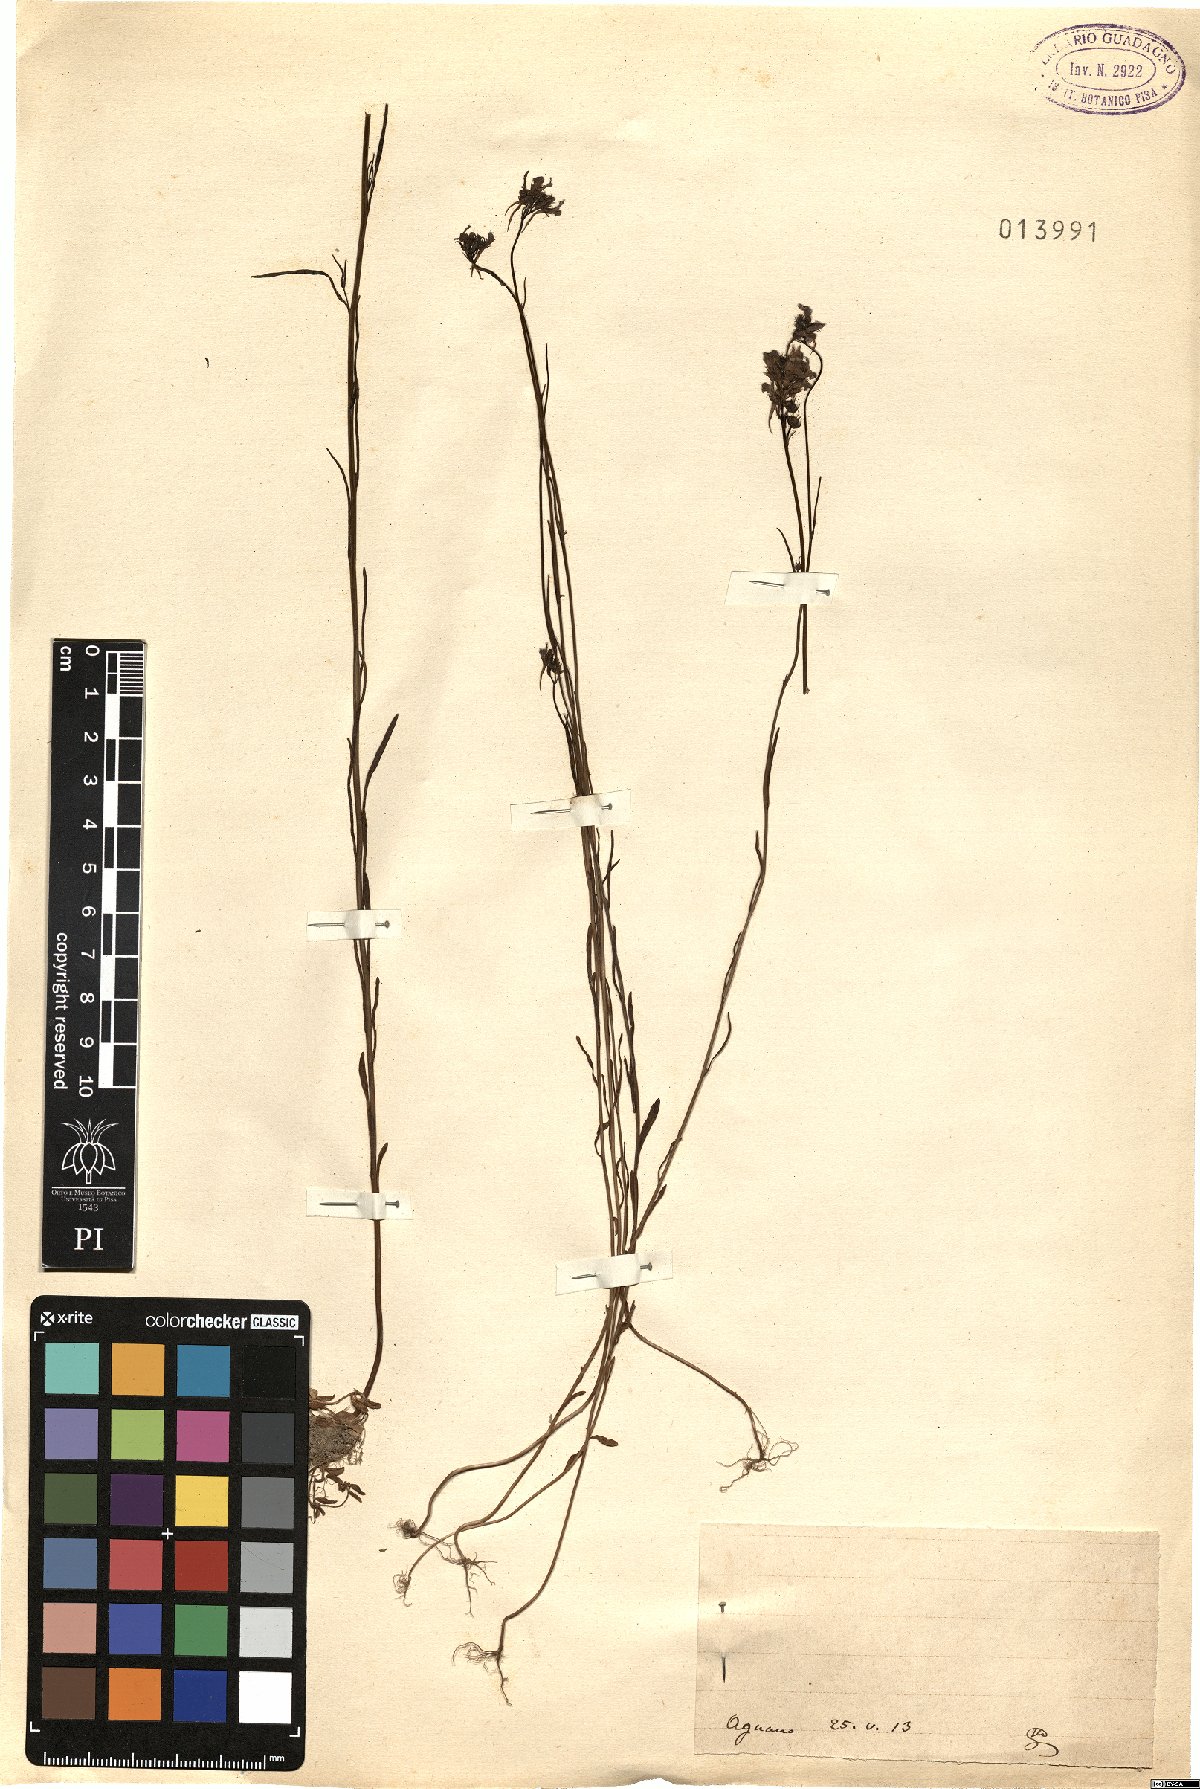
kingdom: Plantae
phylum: Tracheophyta
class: Magnoliopsida
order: Lamiales
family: Plantaginaceae
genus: Linaria
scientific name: Linaria
